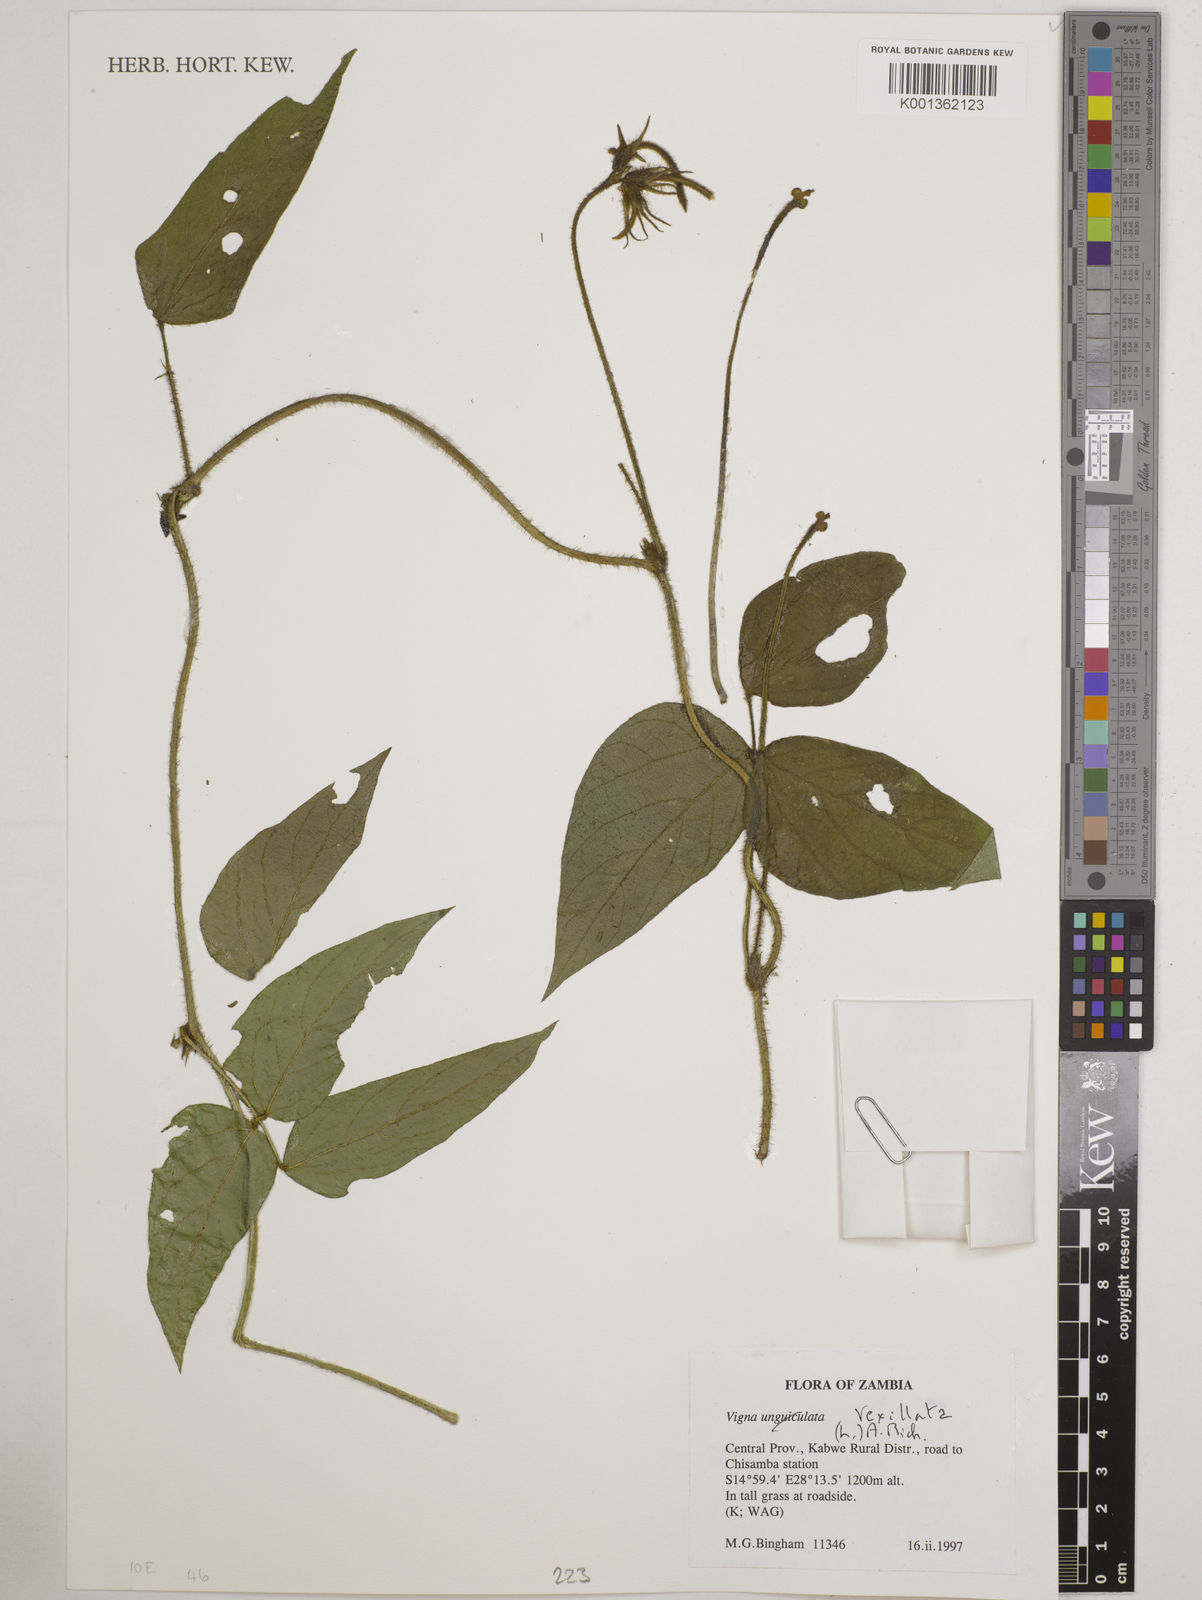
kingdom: Plantae
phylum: Tracheophyta
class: Magnoliopsida
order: Fabales
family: Fabaceae
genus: Vigna
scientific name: Vigna vexillata
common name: Zombi pea
